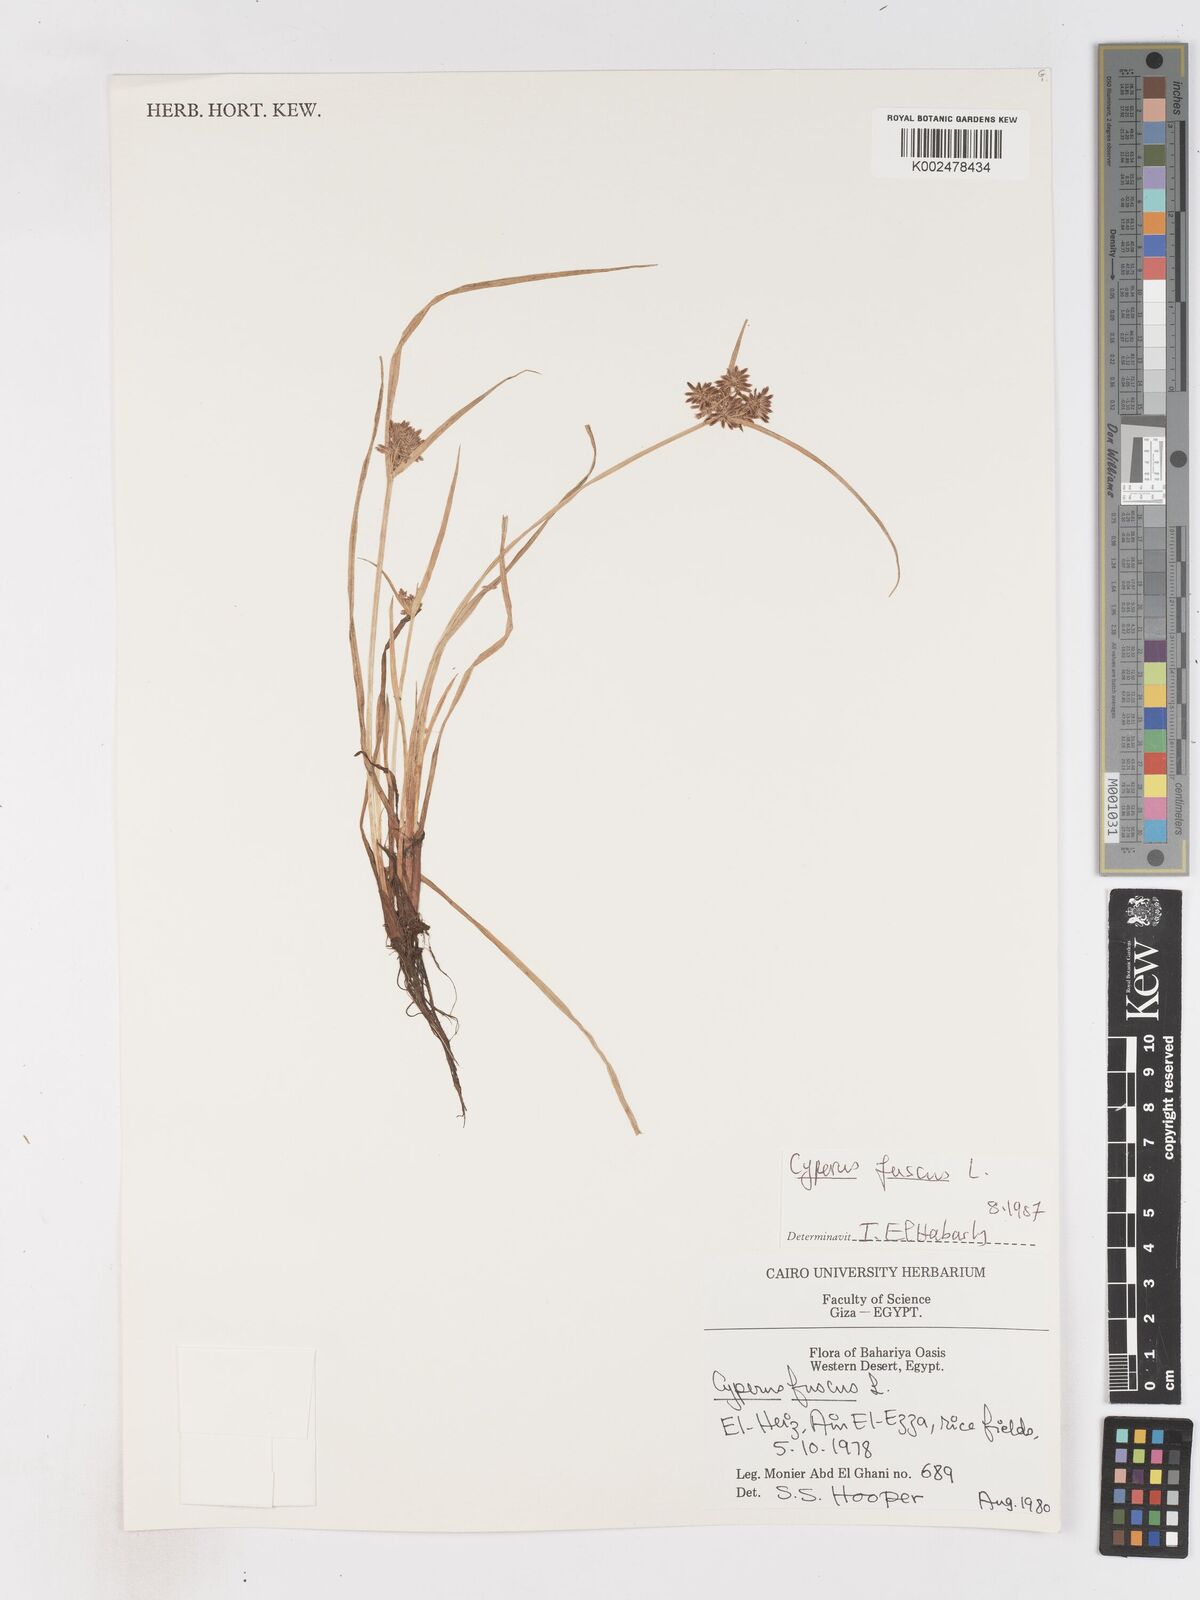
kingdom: Plantae
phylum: Tracheophyta
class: Liliopsida
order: Poales
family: Cyperaceae
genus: Cyperus
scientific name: Cyperus fuscus
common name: Brown galingale
